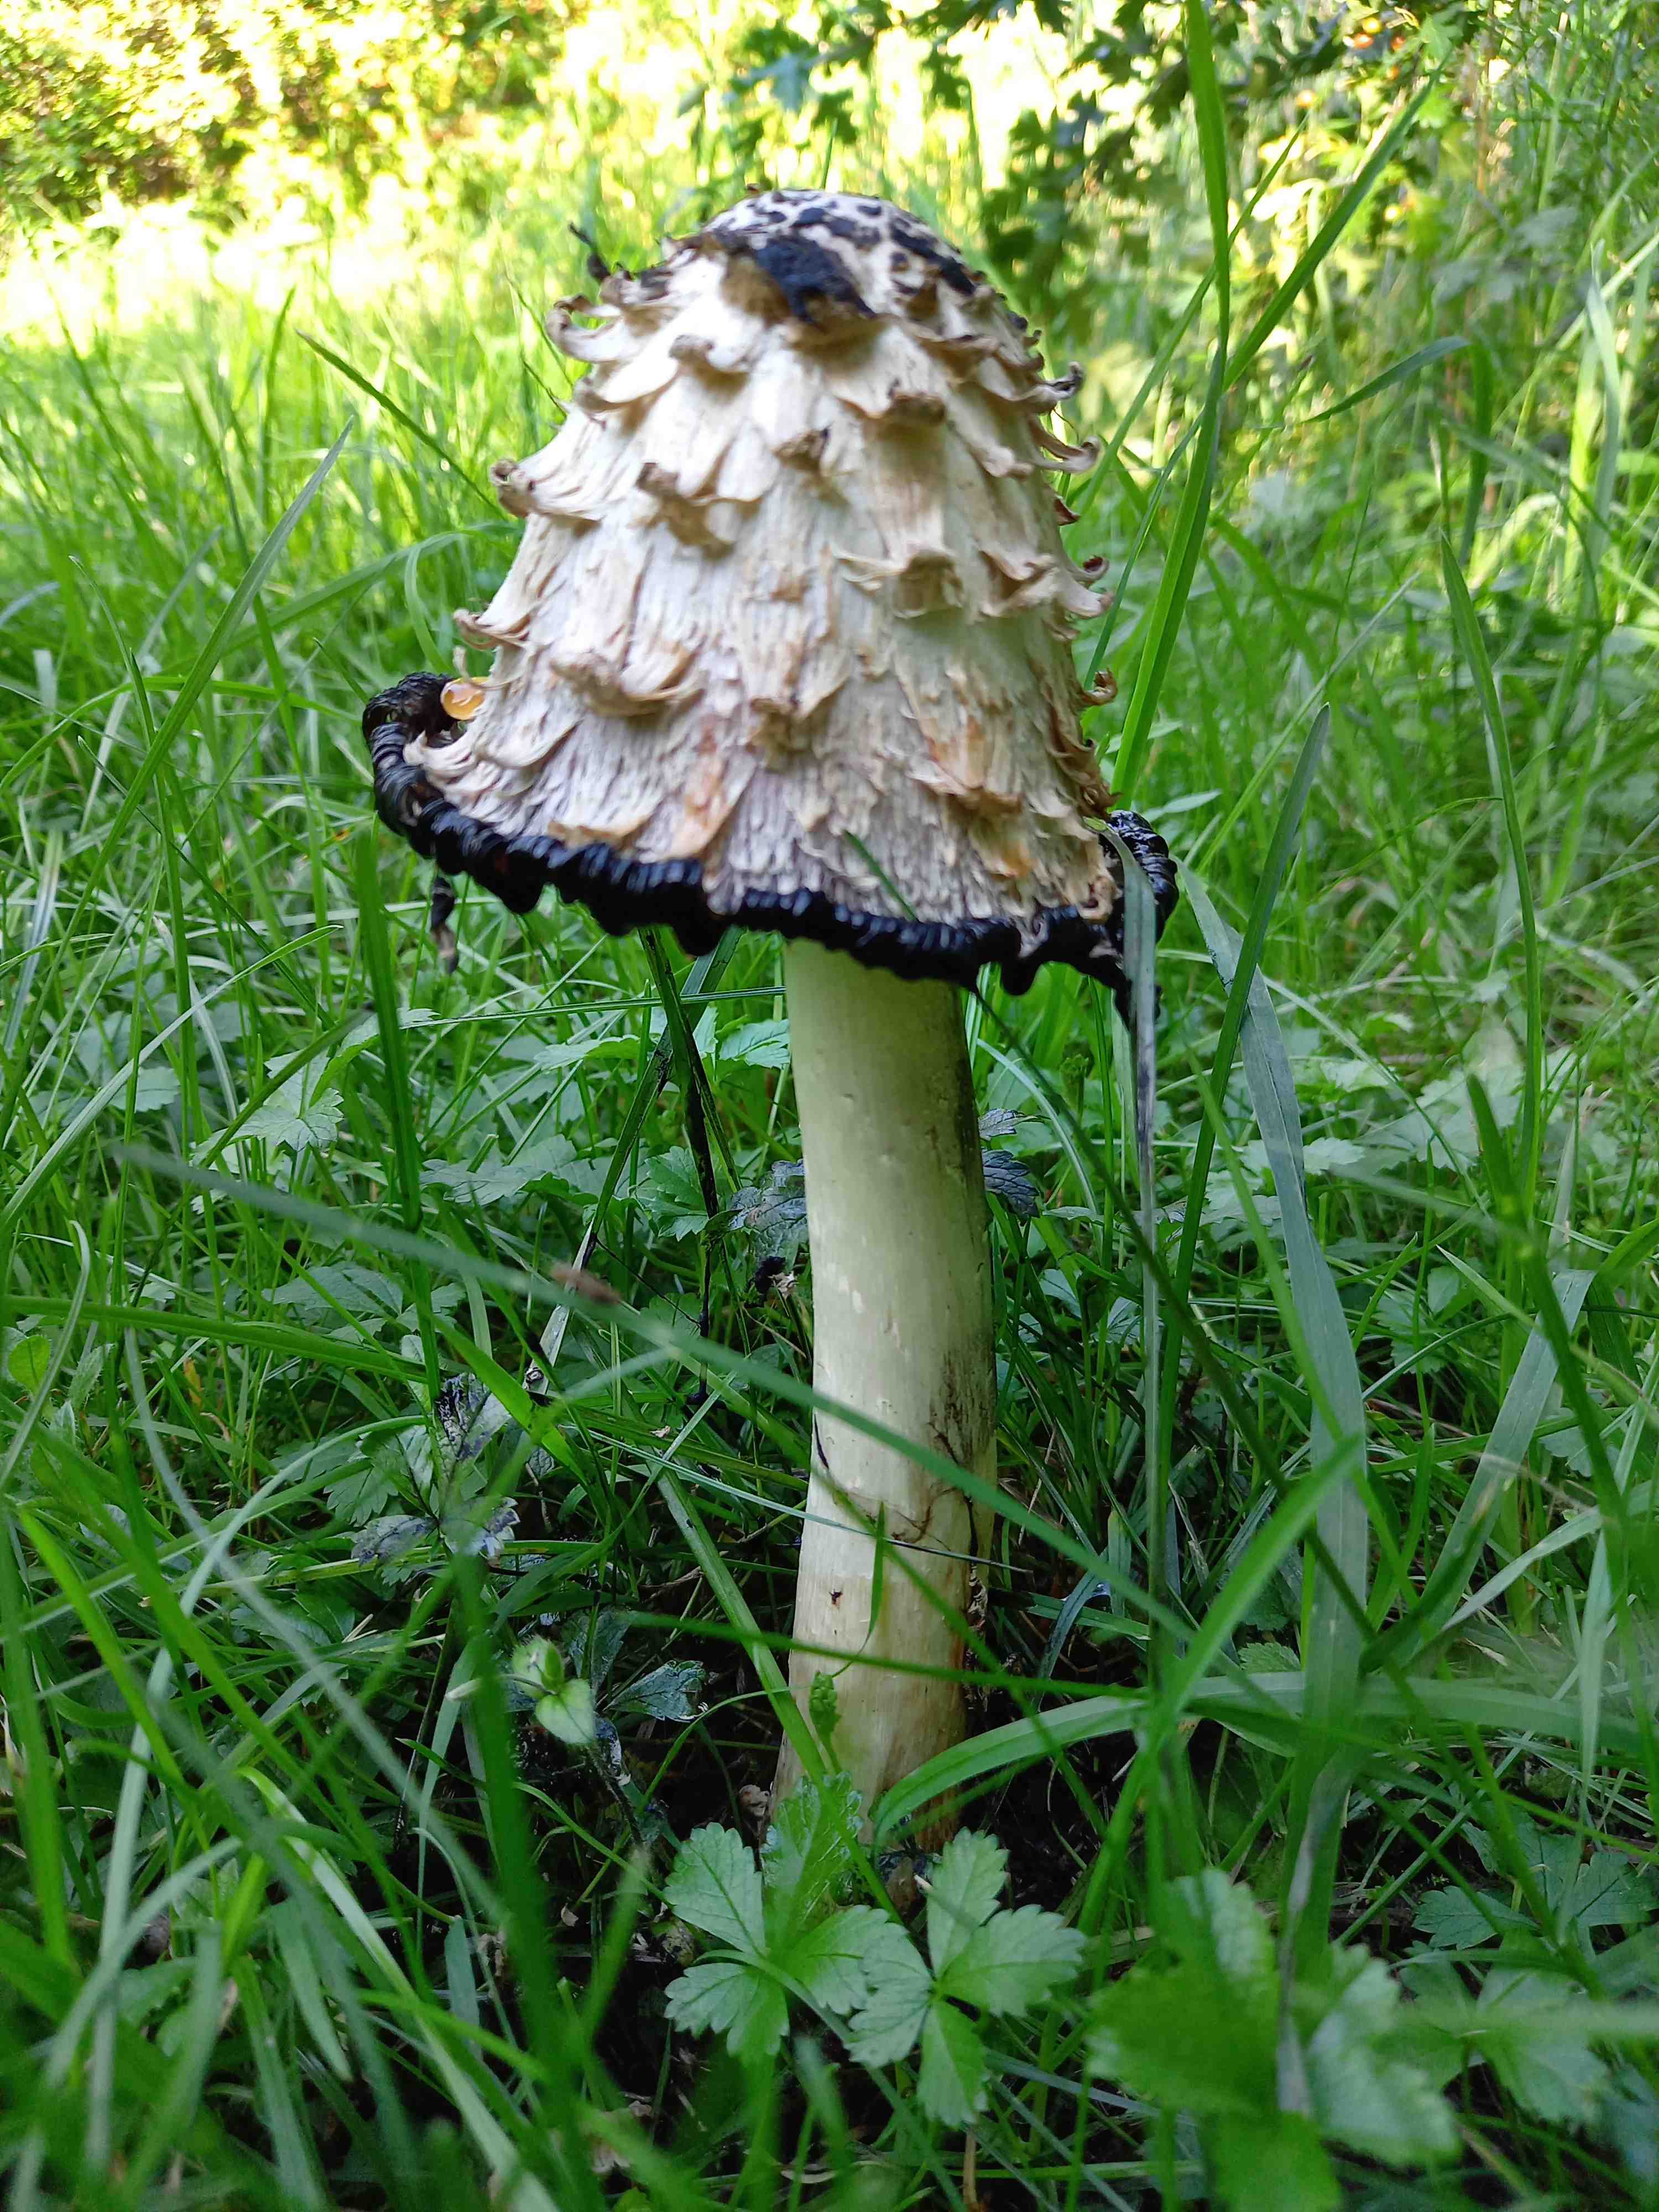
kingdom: Fungi
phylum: Basidiomycota
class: Agaricomycetes
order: Agaricales
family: Agaricaceae
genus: Coprinus
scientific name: Coprinus comatus
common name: stor parykhat
